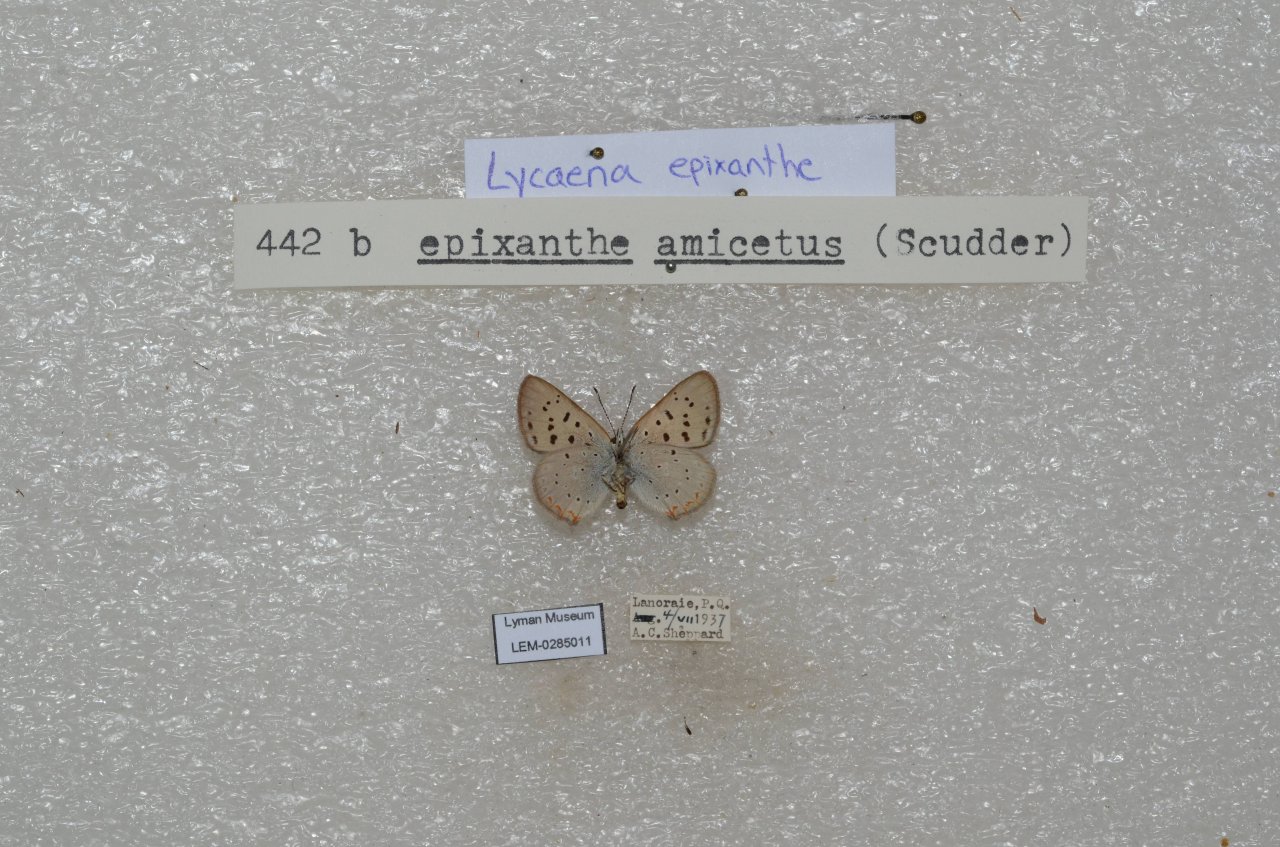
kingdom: Animalia
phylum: Arthropoda
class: Insecta
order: Lepidoptera
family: Sesiidae
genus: Sesia
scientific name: Sesia Lycaena epixanthe
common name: Bog Copper
